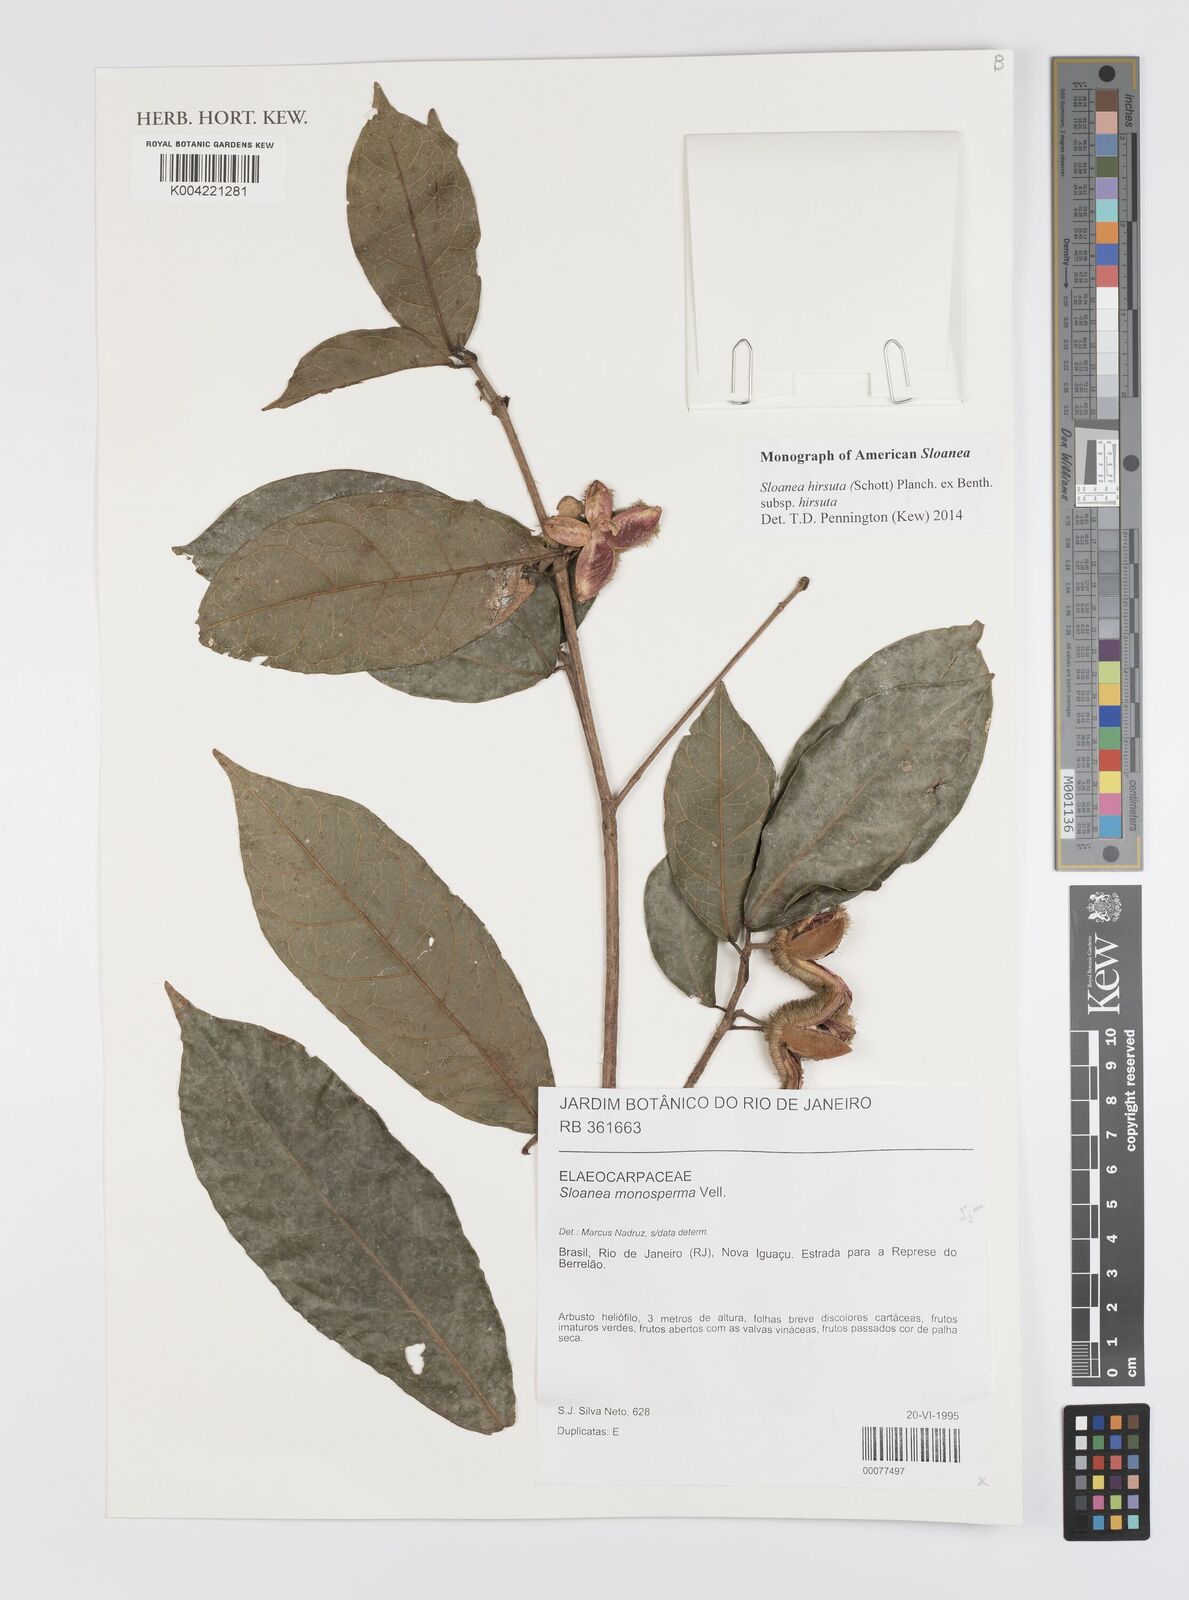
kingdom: Plantae
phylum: Tracheophyta
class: Magnoliopsida
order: Oxalidales
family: Elaeocarpaceae
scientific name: Elaeocarpaceae
